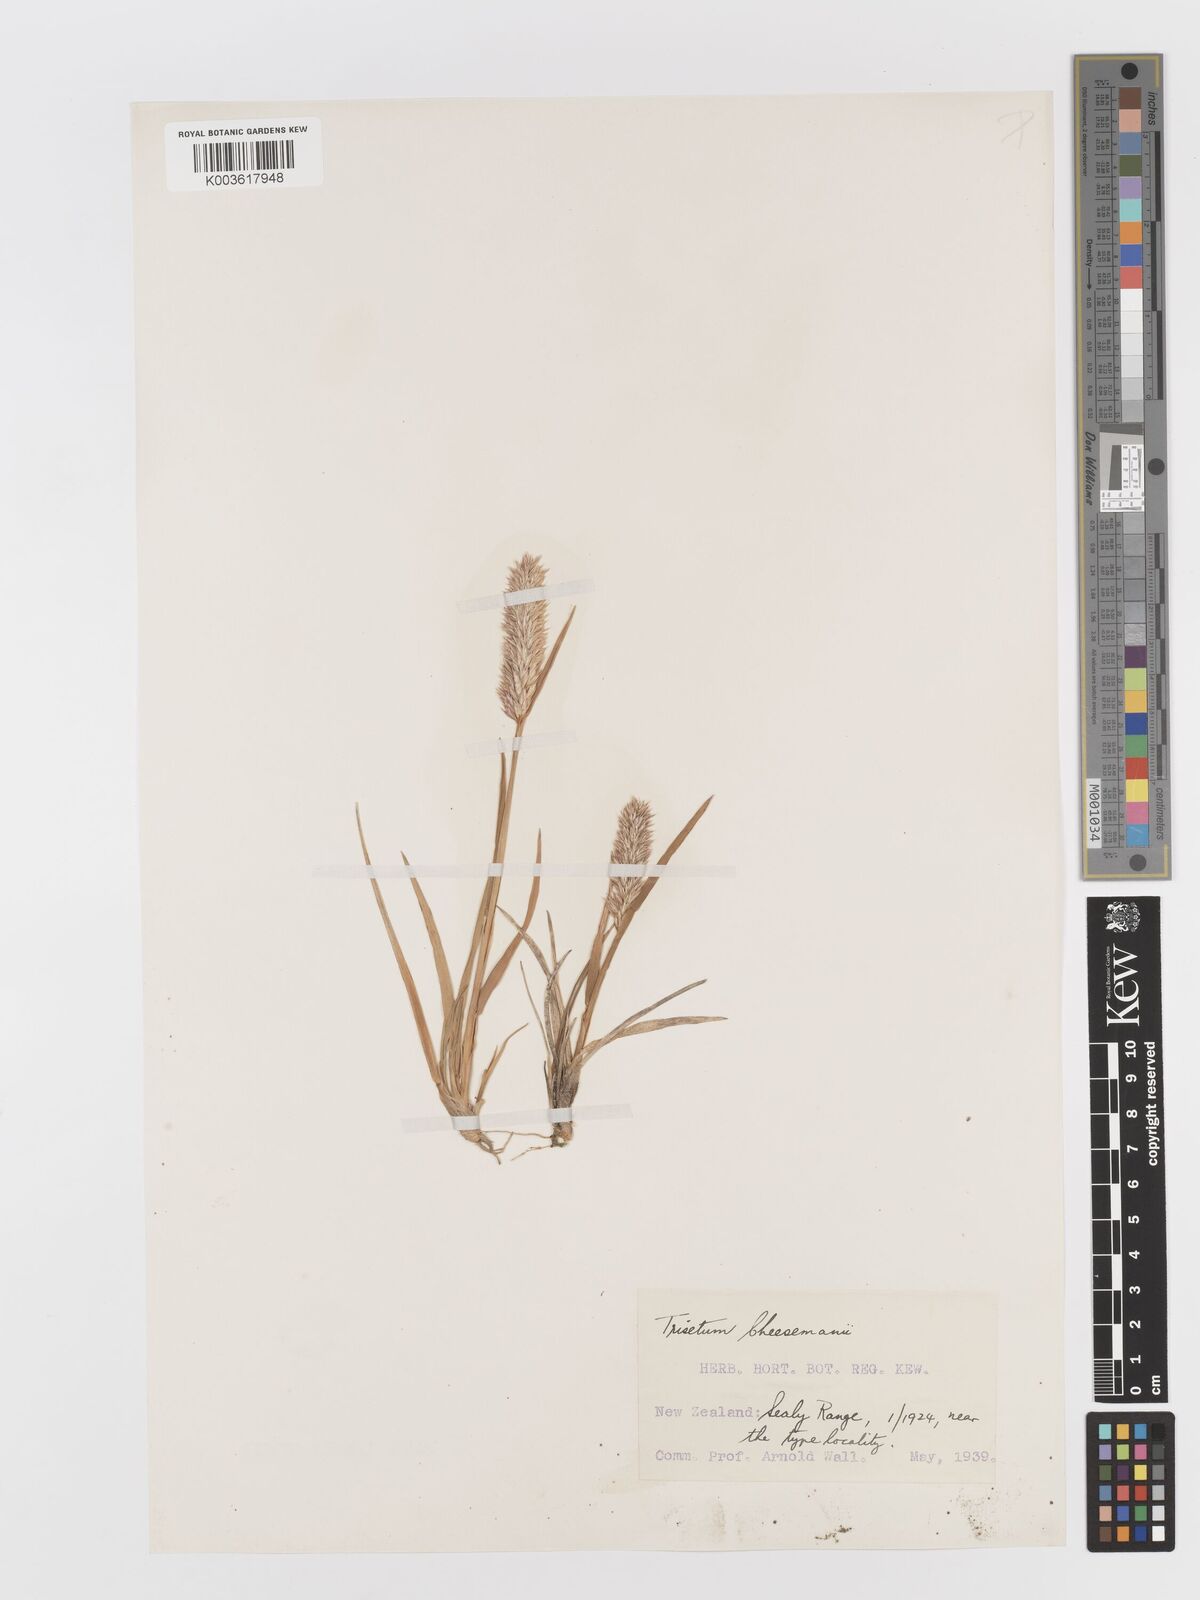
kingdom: Plantae
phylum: Tracheophyta
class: Liliopsida
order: Poales
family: Poaceae
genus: Koeleria
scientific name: Koeleria cheesemanii
